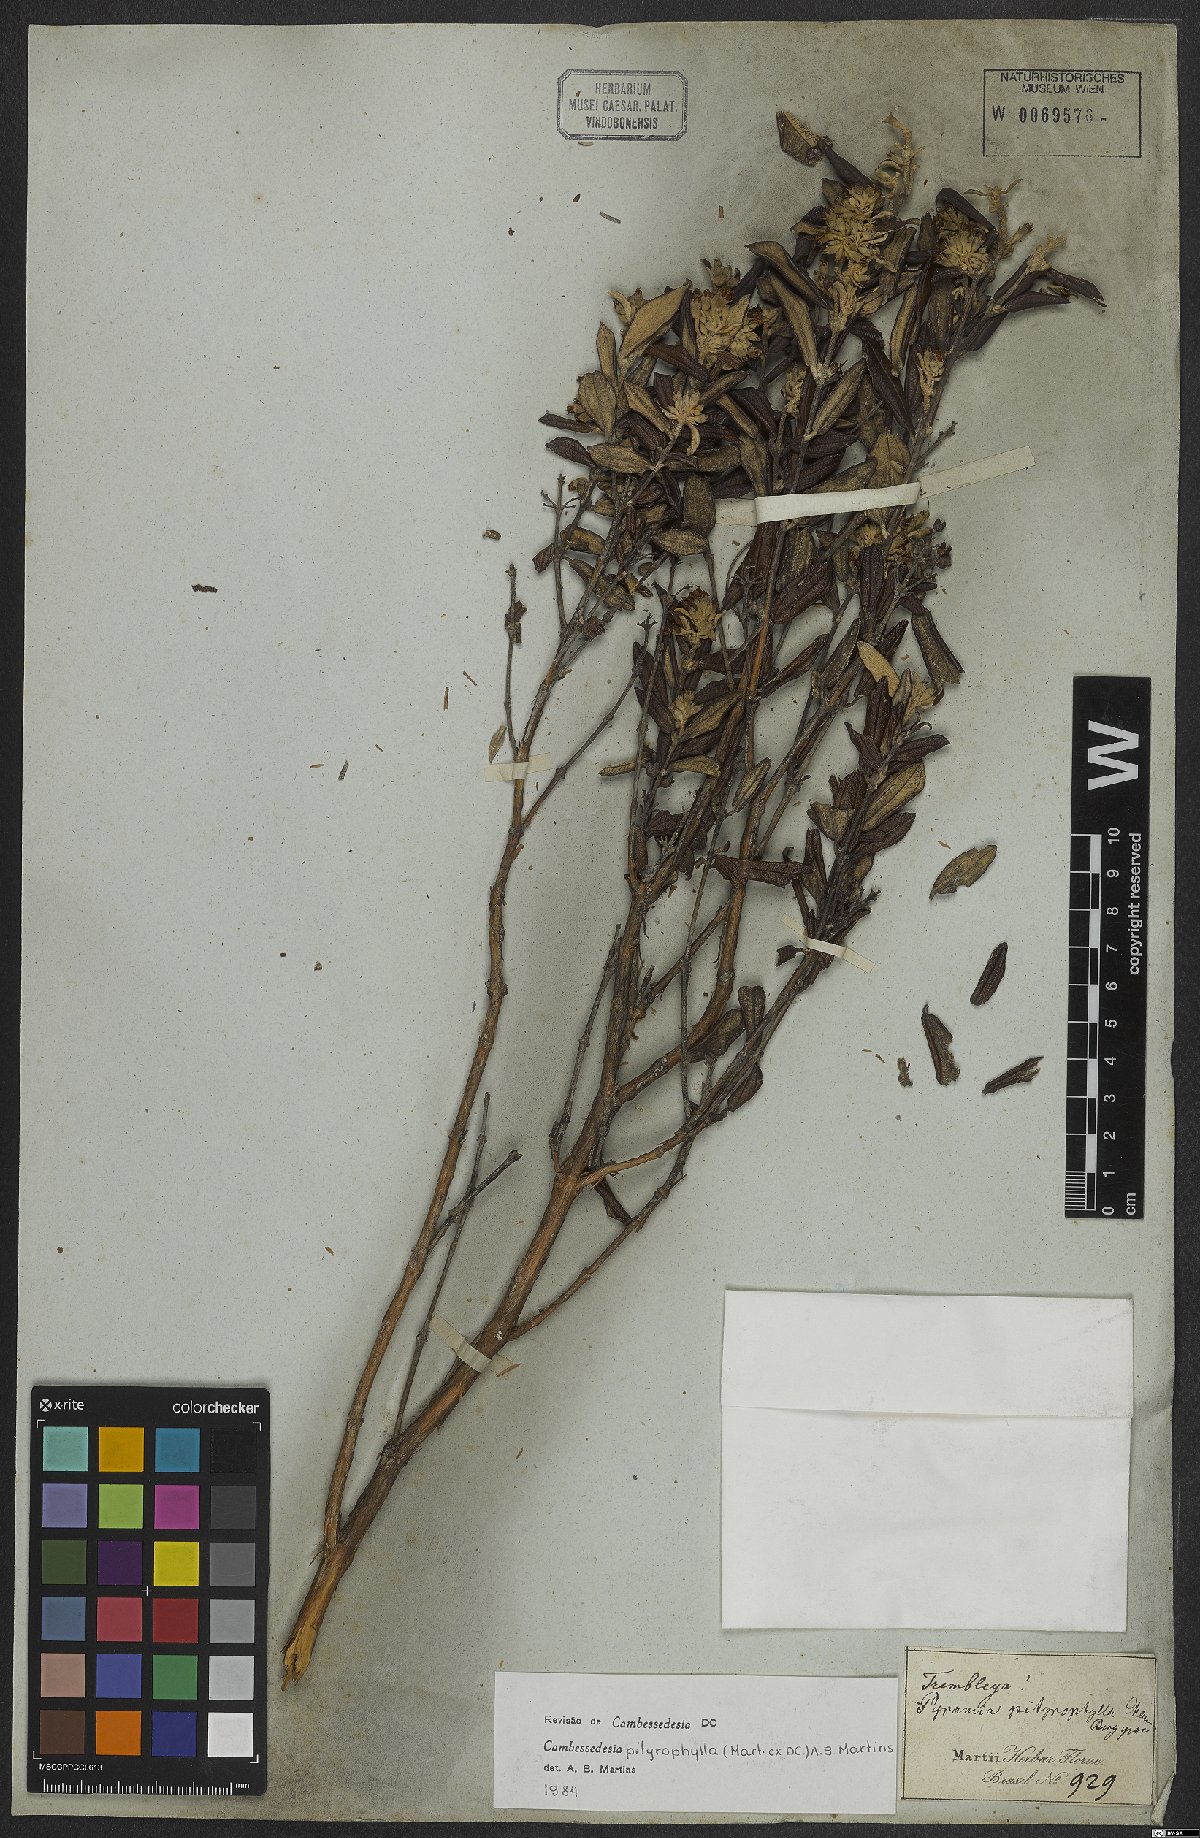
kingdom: Plantae
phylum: Tracheophyta
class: Magnoliopsida
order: Myrtales
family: Melastomataceae
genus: Cambessedesia
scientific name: Cambessedesia pityrophylla
